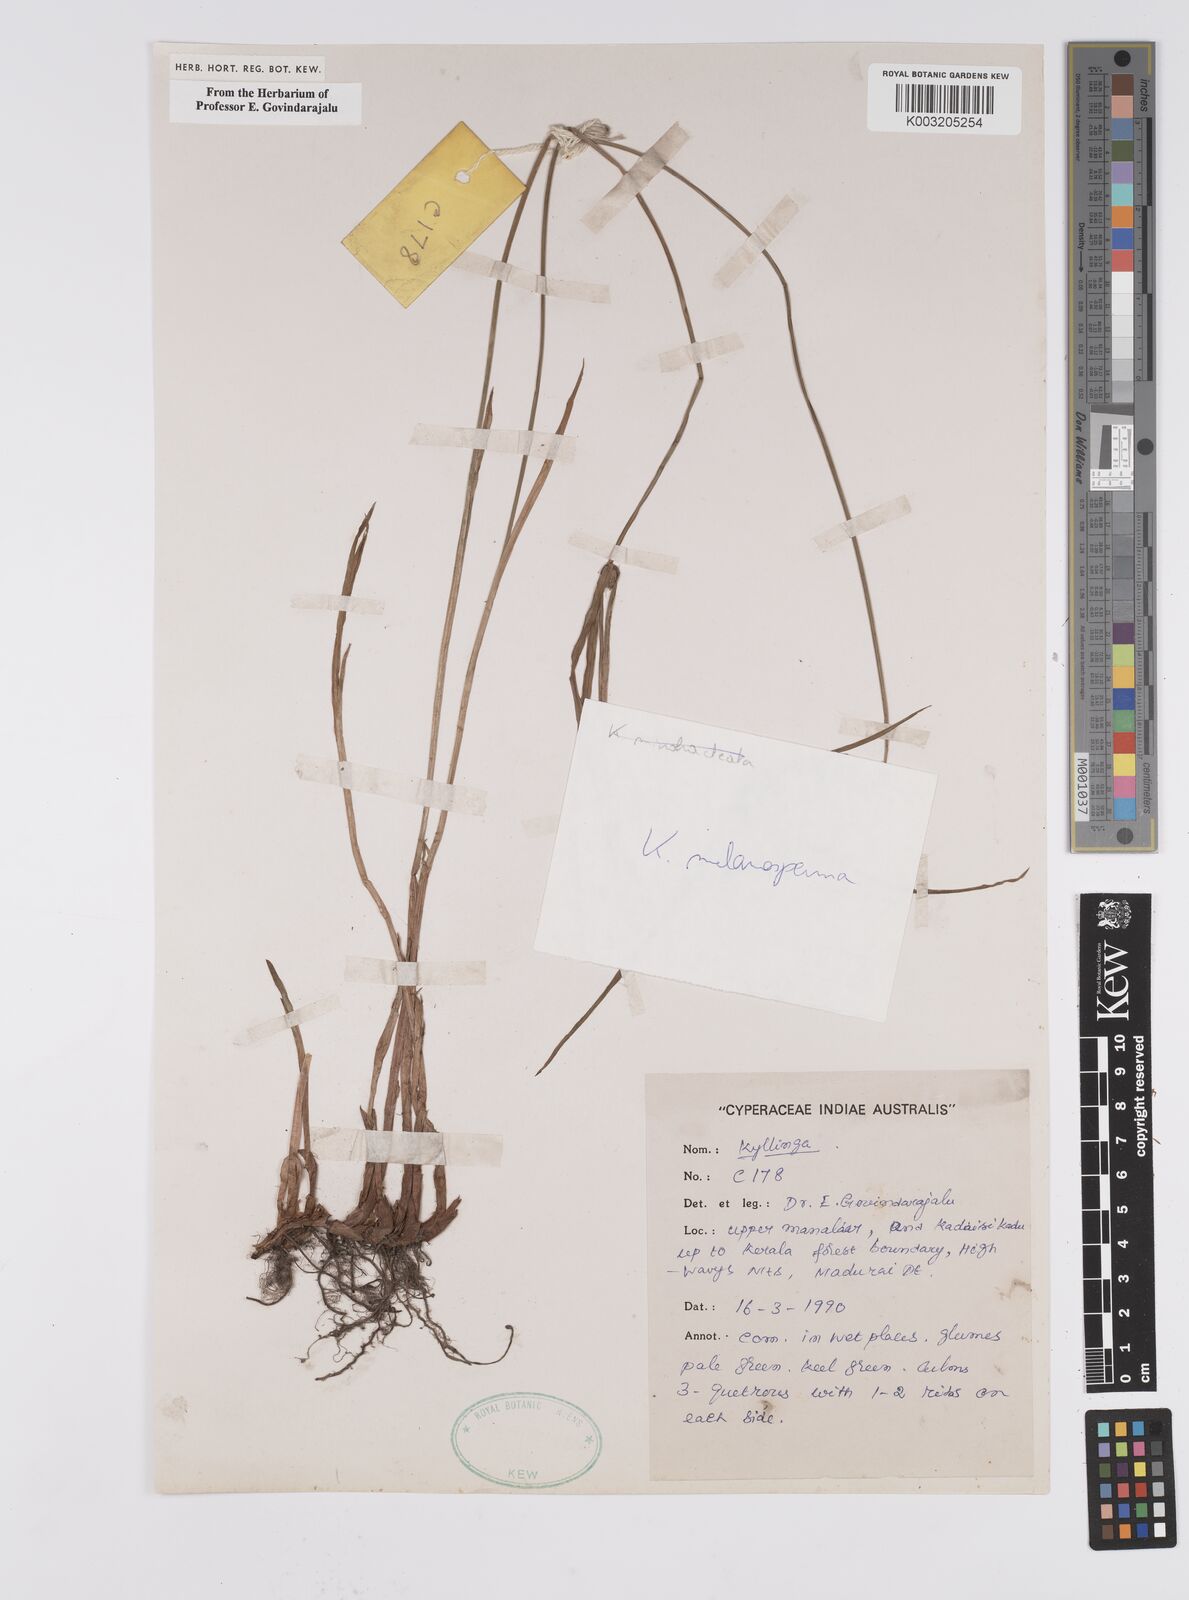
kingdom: Plantae
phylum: Tracheophyta
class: Liliopsida
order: Poales
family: Cyperaceae
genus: Cyperus
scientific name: Cyperus melanospermus
